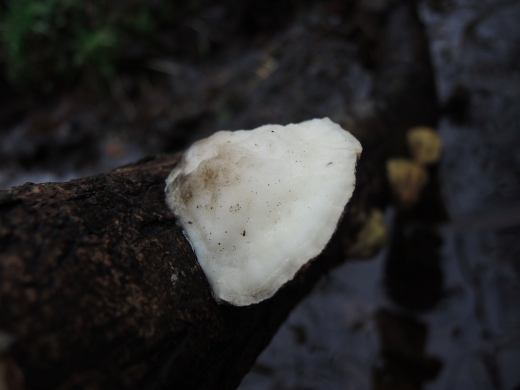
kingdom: Fungi
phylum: Basidiomycota
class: Agaricomycetes
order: Polyporales
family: Polyporaceae
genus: Trametes
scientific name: Trametes suaveolens
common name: vellugtende læderporesvamp
